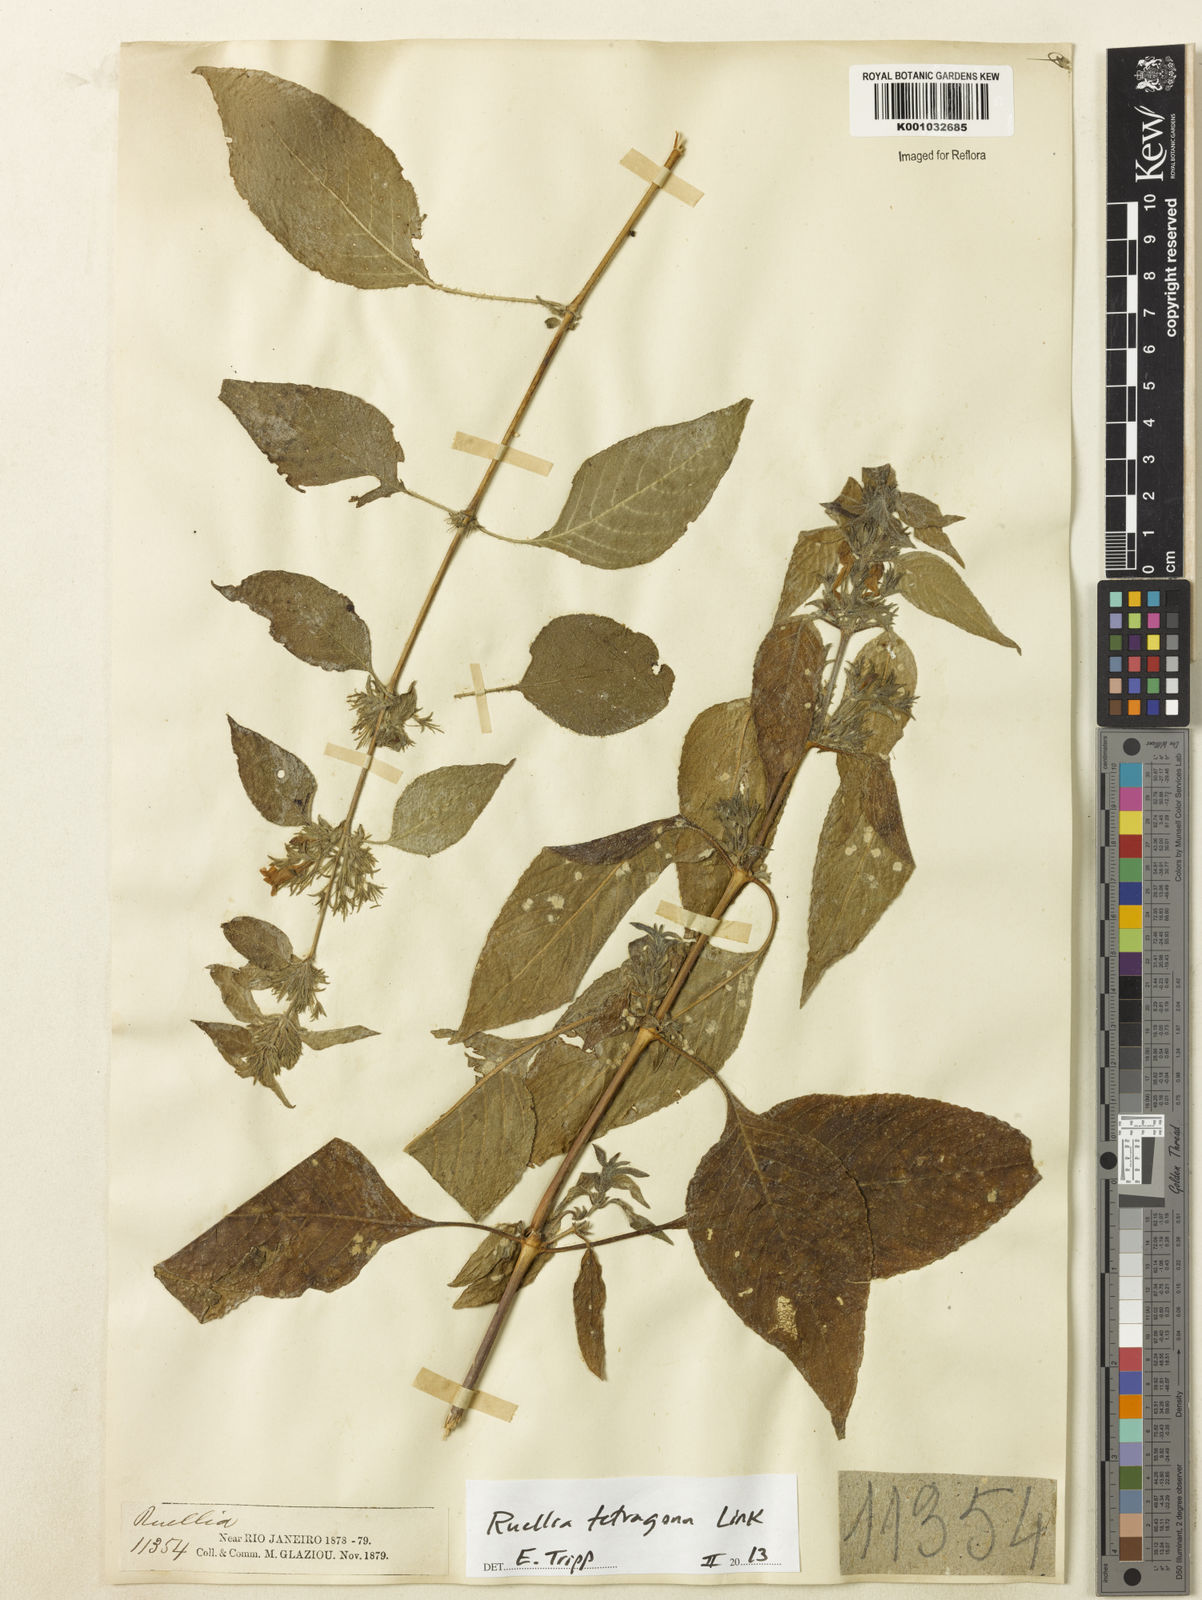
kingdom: Plantae
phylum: Tracheophyta
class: Magnoliopsida
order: Lamiales
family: Acanthaceae
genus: Ruellia
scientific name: Ruellia
